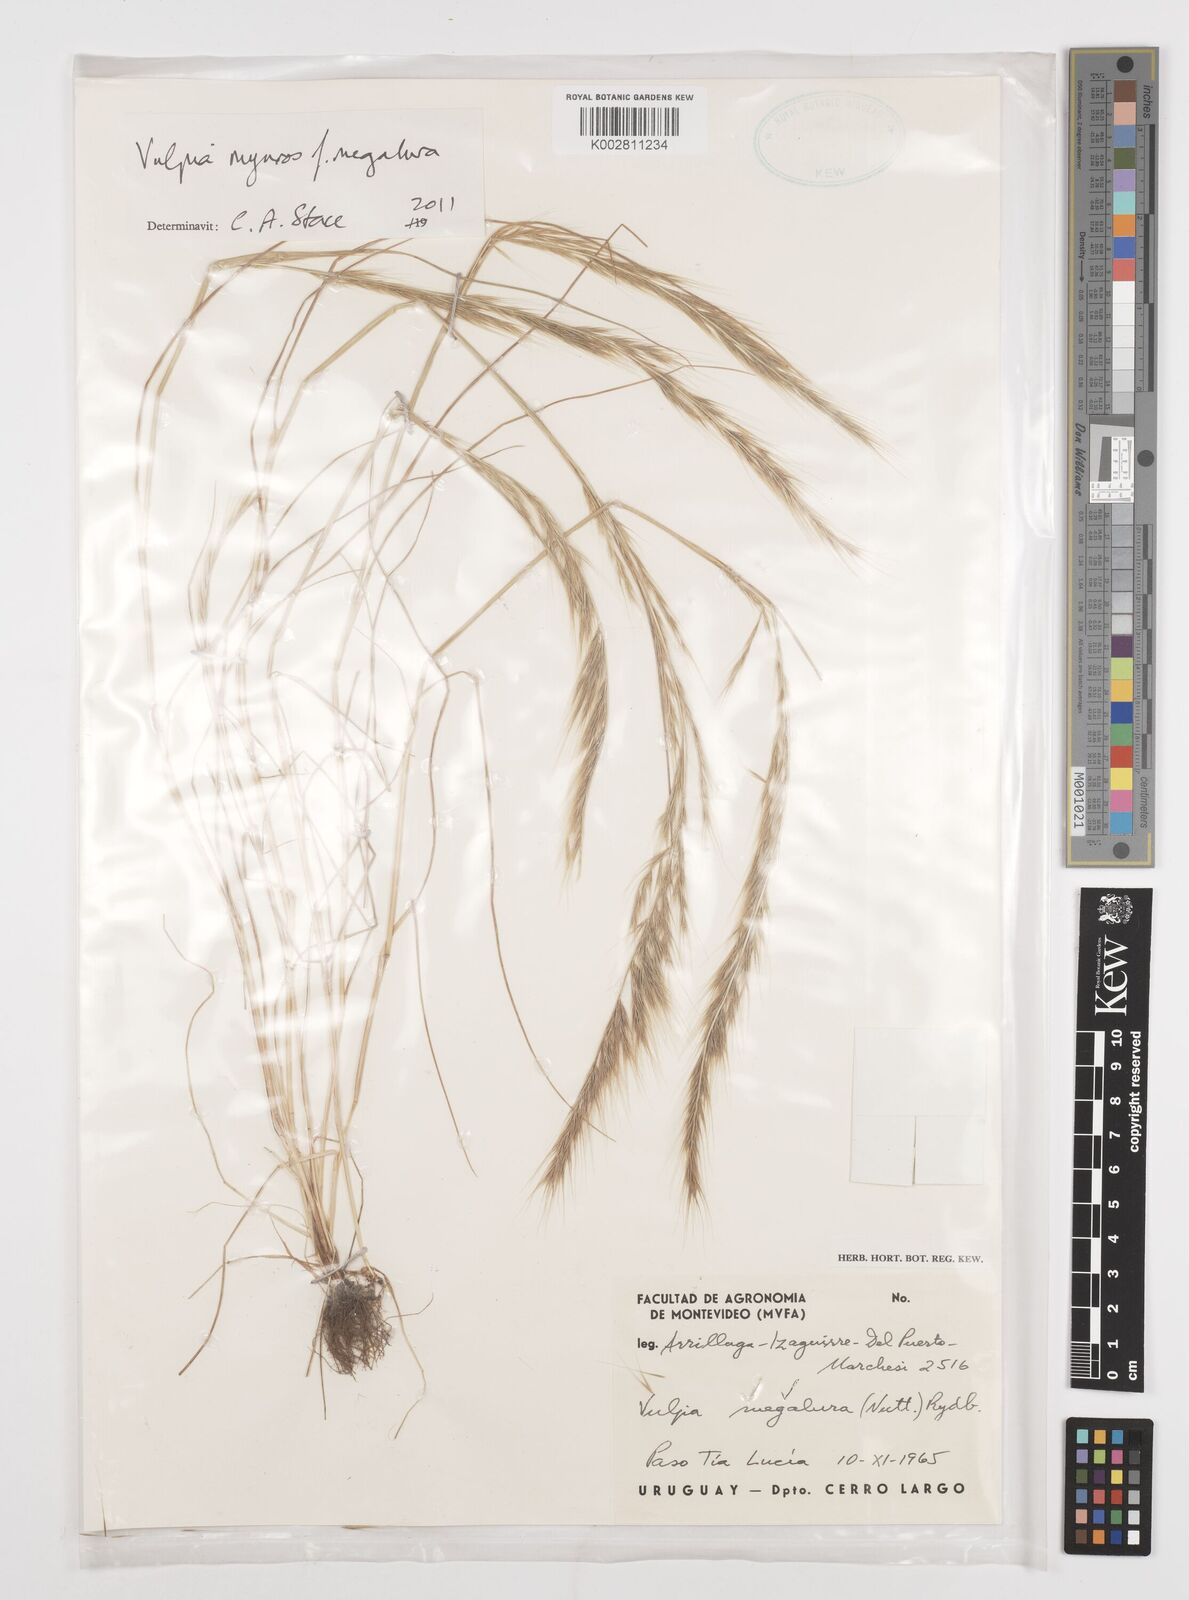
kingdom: Plantae
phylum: Tracheophyta
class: Liliopsida
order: Poales
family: Poaceae
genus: Festuca
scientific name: Festuca myuros
